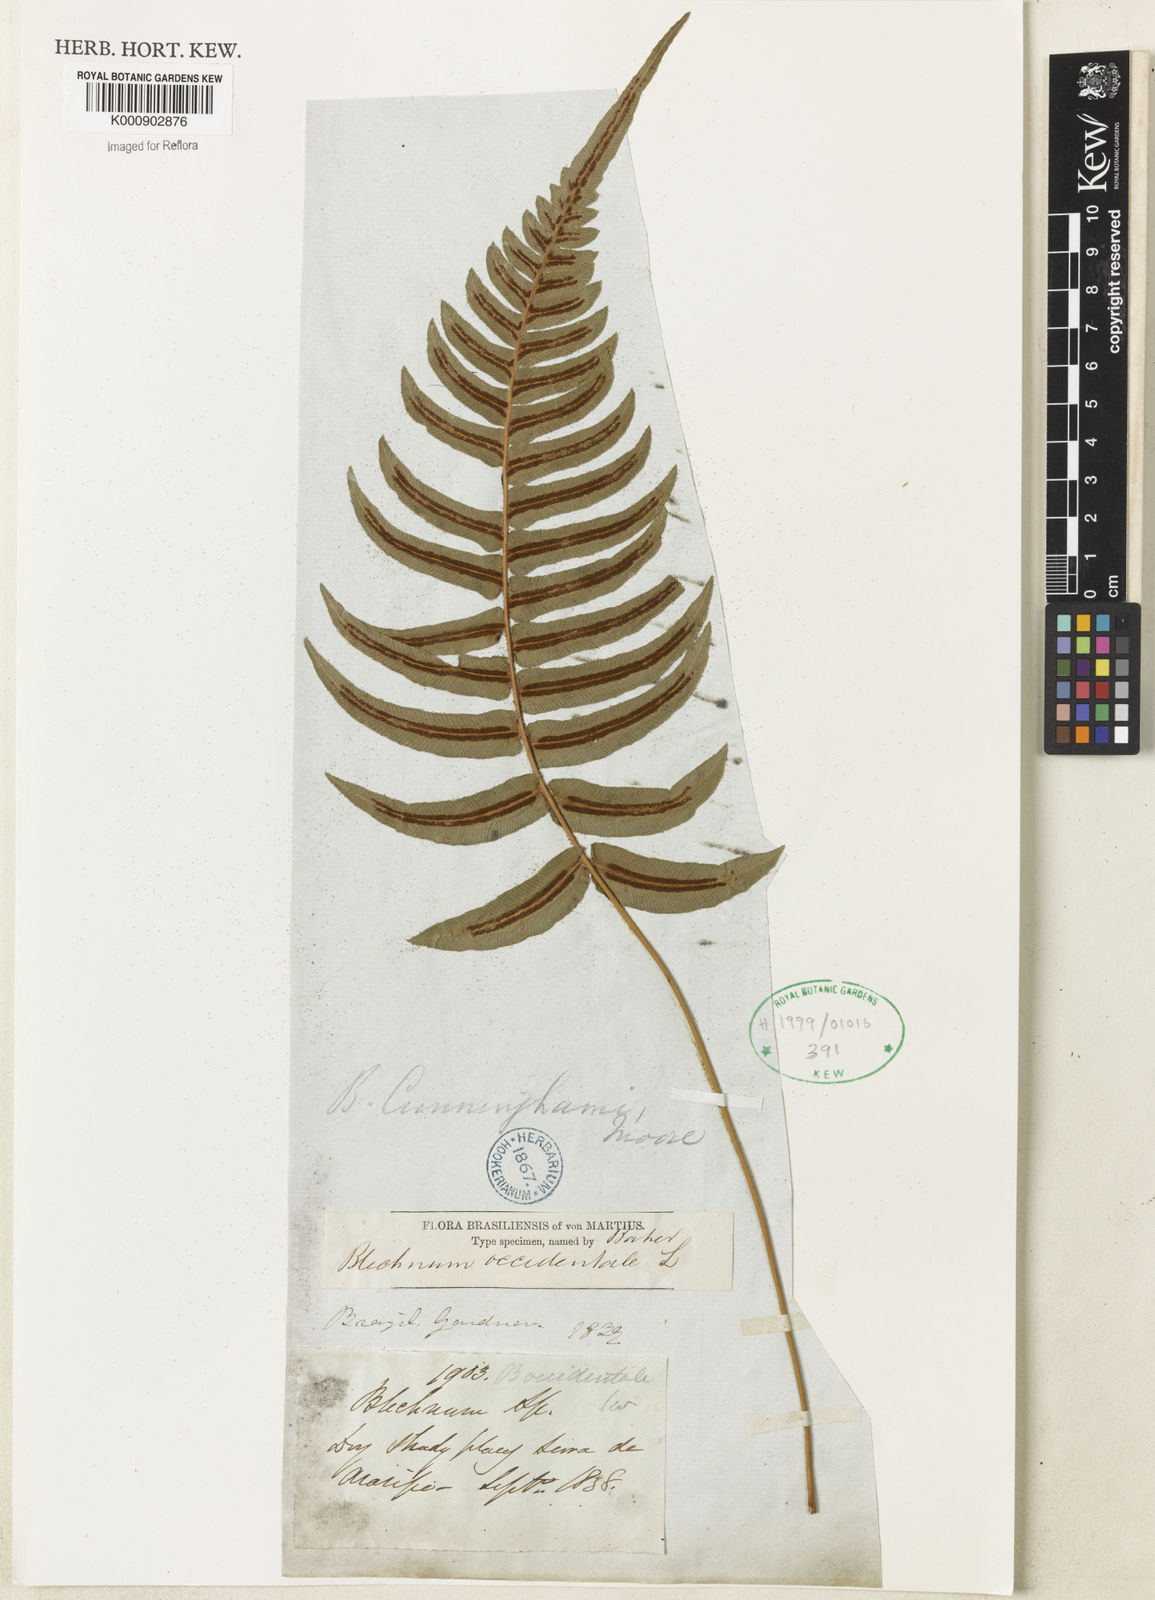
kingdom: Plantae
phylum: Tracheophyta
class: Polypodiopsida
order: Polypodiales
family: Blechnaceae
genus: Blechnum
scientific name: Blechnum occidentale
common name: Hammock fern
